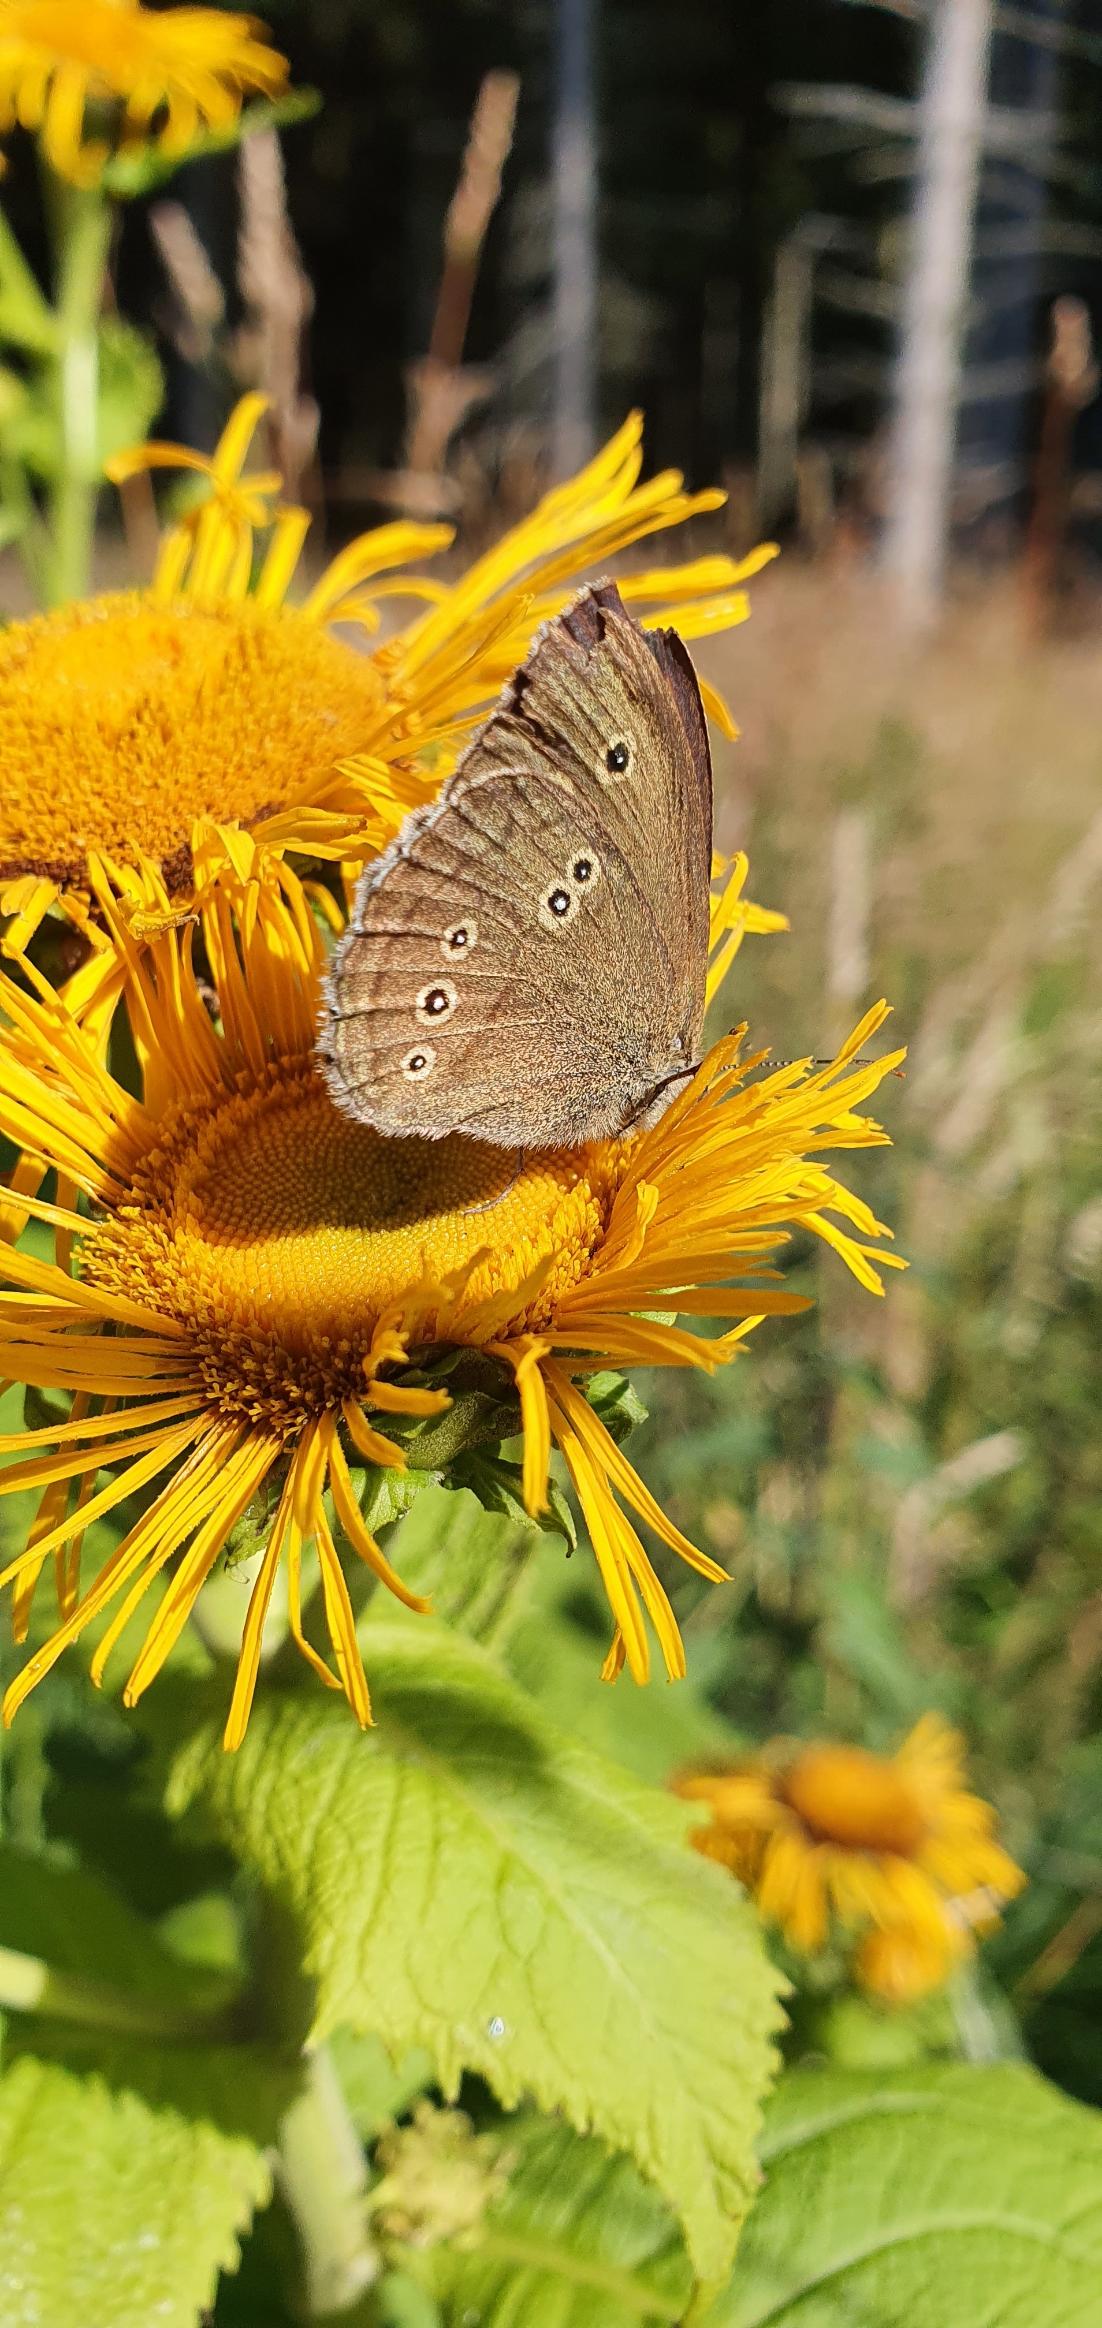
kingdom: Animalia
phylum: Arthropoda
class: Insecta
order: Lepidoptera
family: Nymphalidae
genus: Aphantopus
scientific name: Aphantopus hyperantus
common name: Engrandøje
